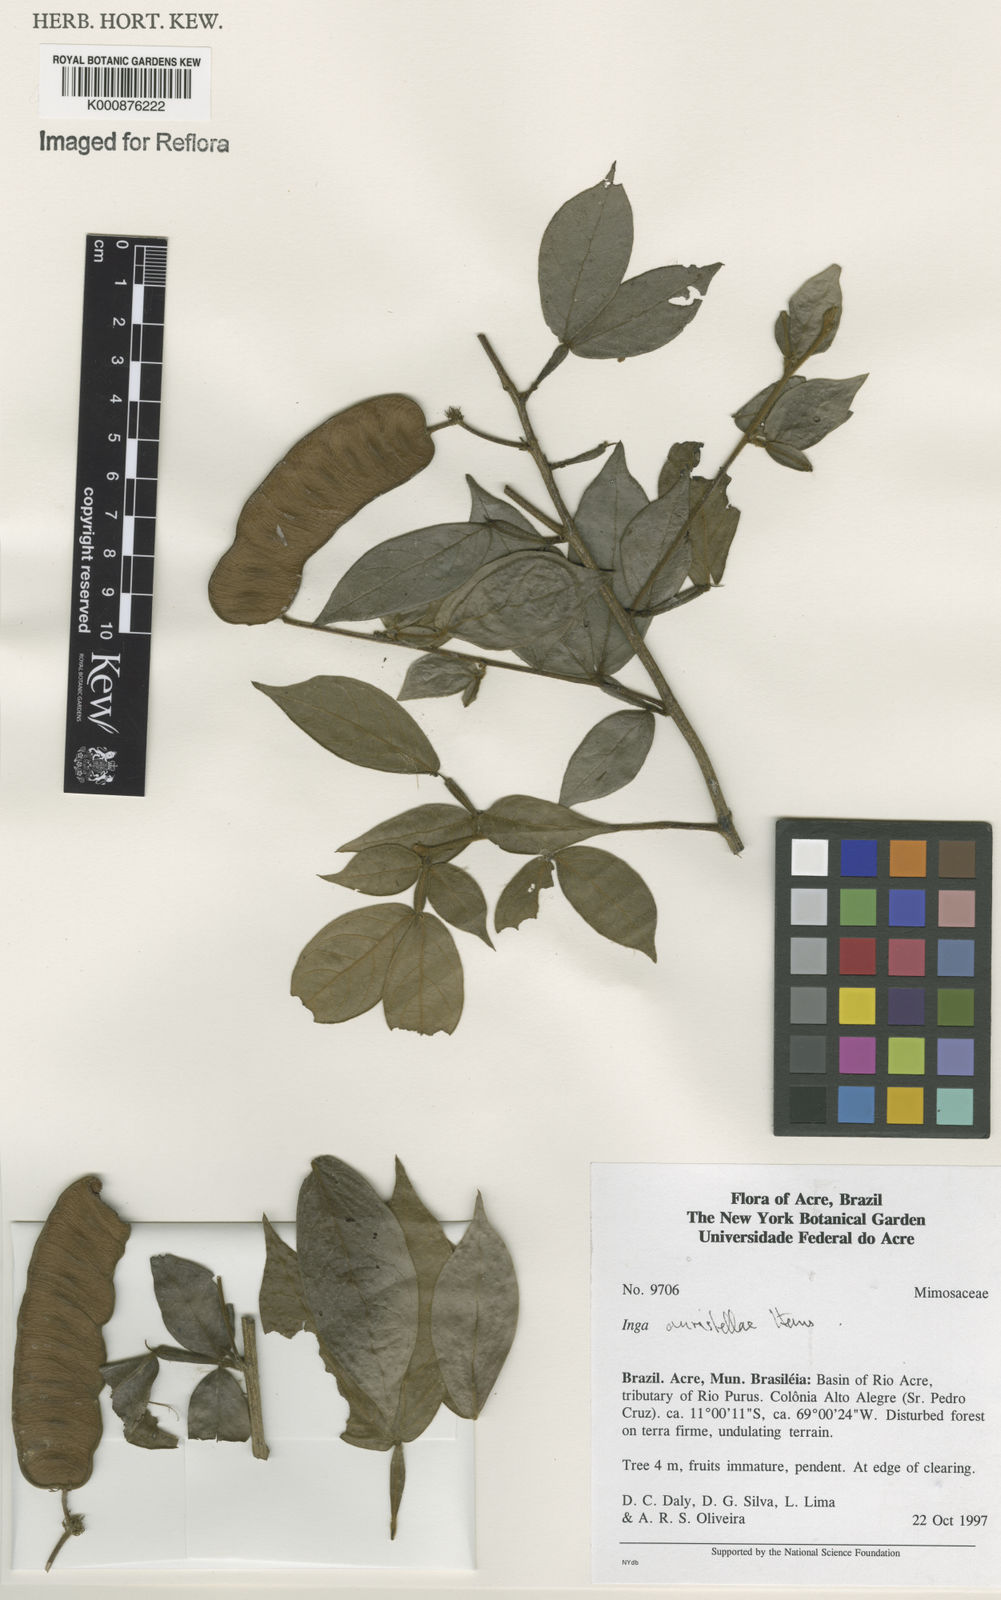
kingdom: Plantae
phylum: Tracheophyta
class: Magnoliopsida
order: Fabales
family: Fabaceae
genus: Inga
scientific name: Inga auristellae
